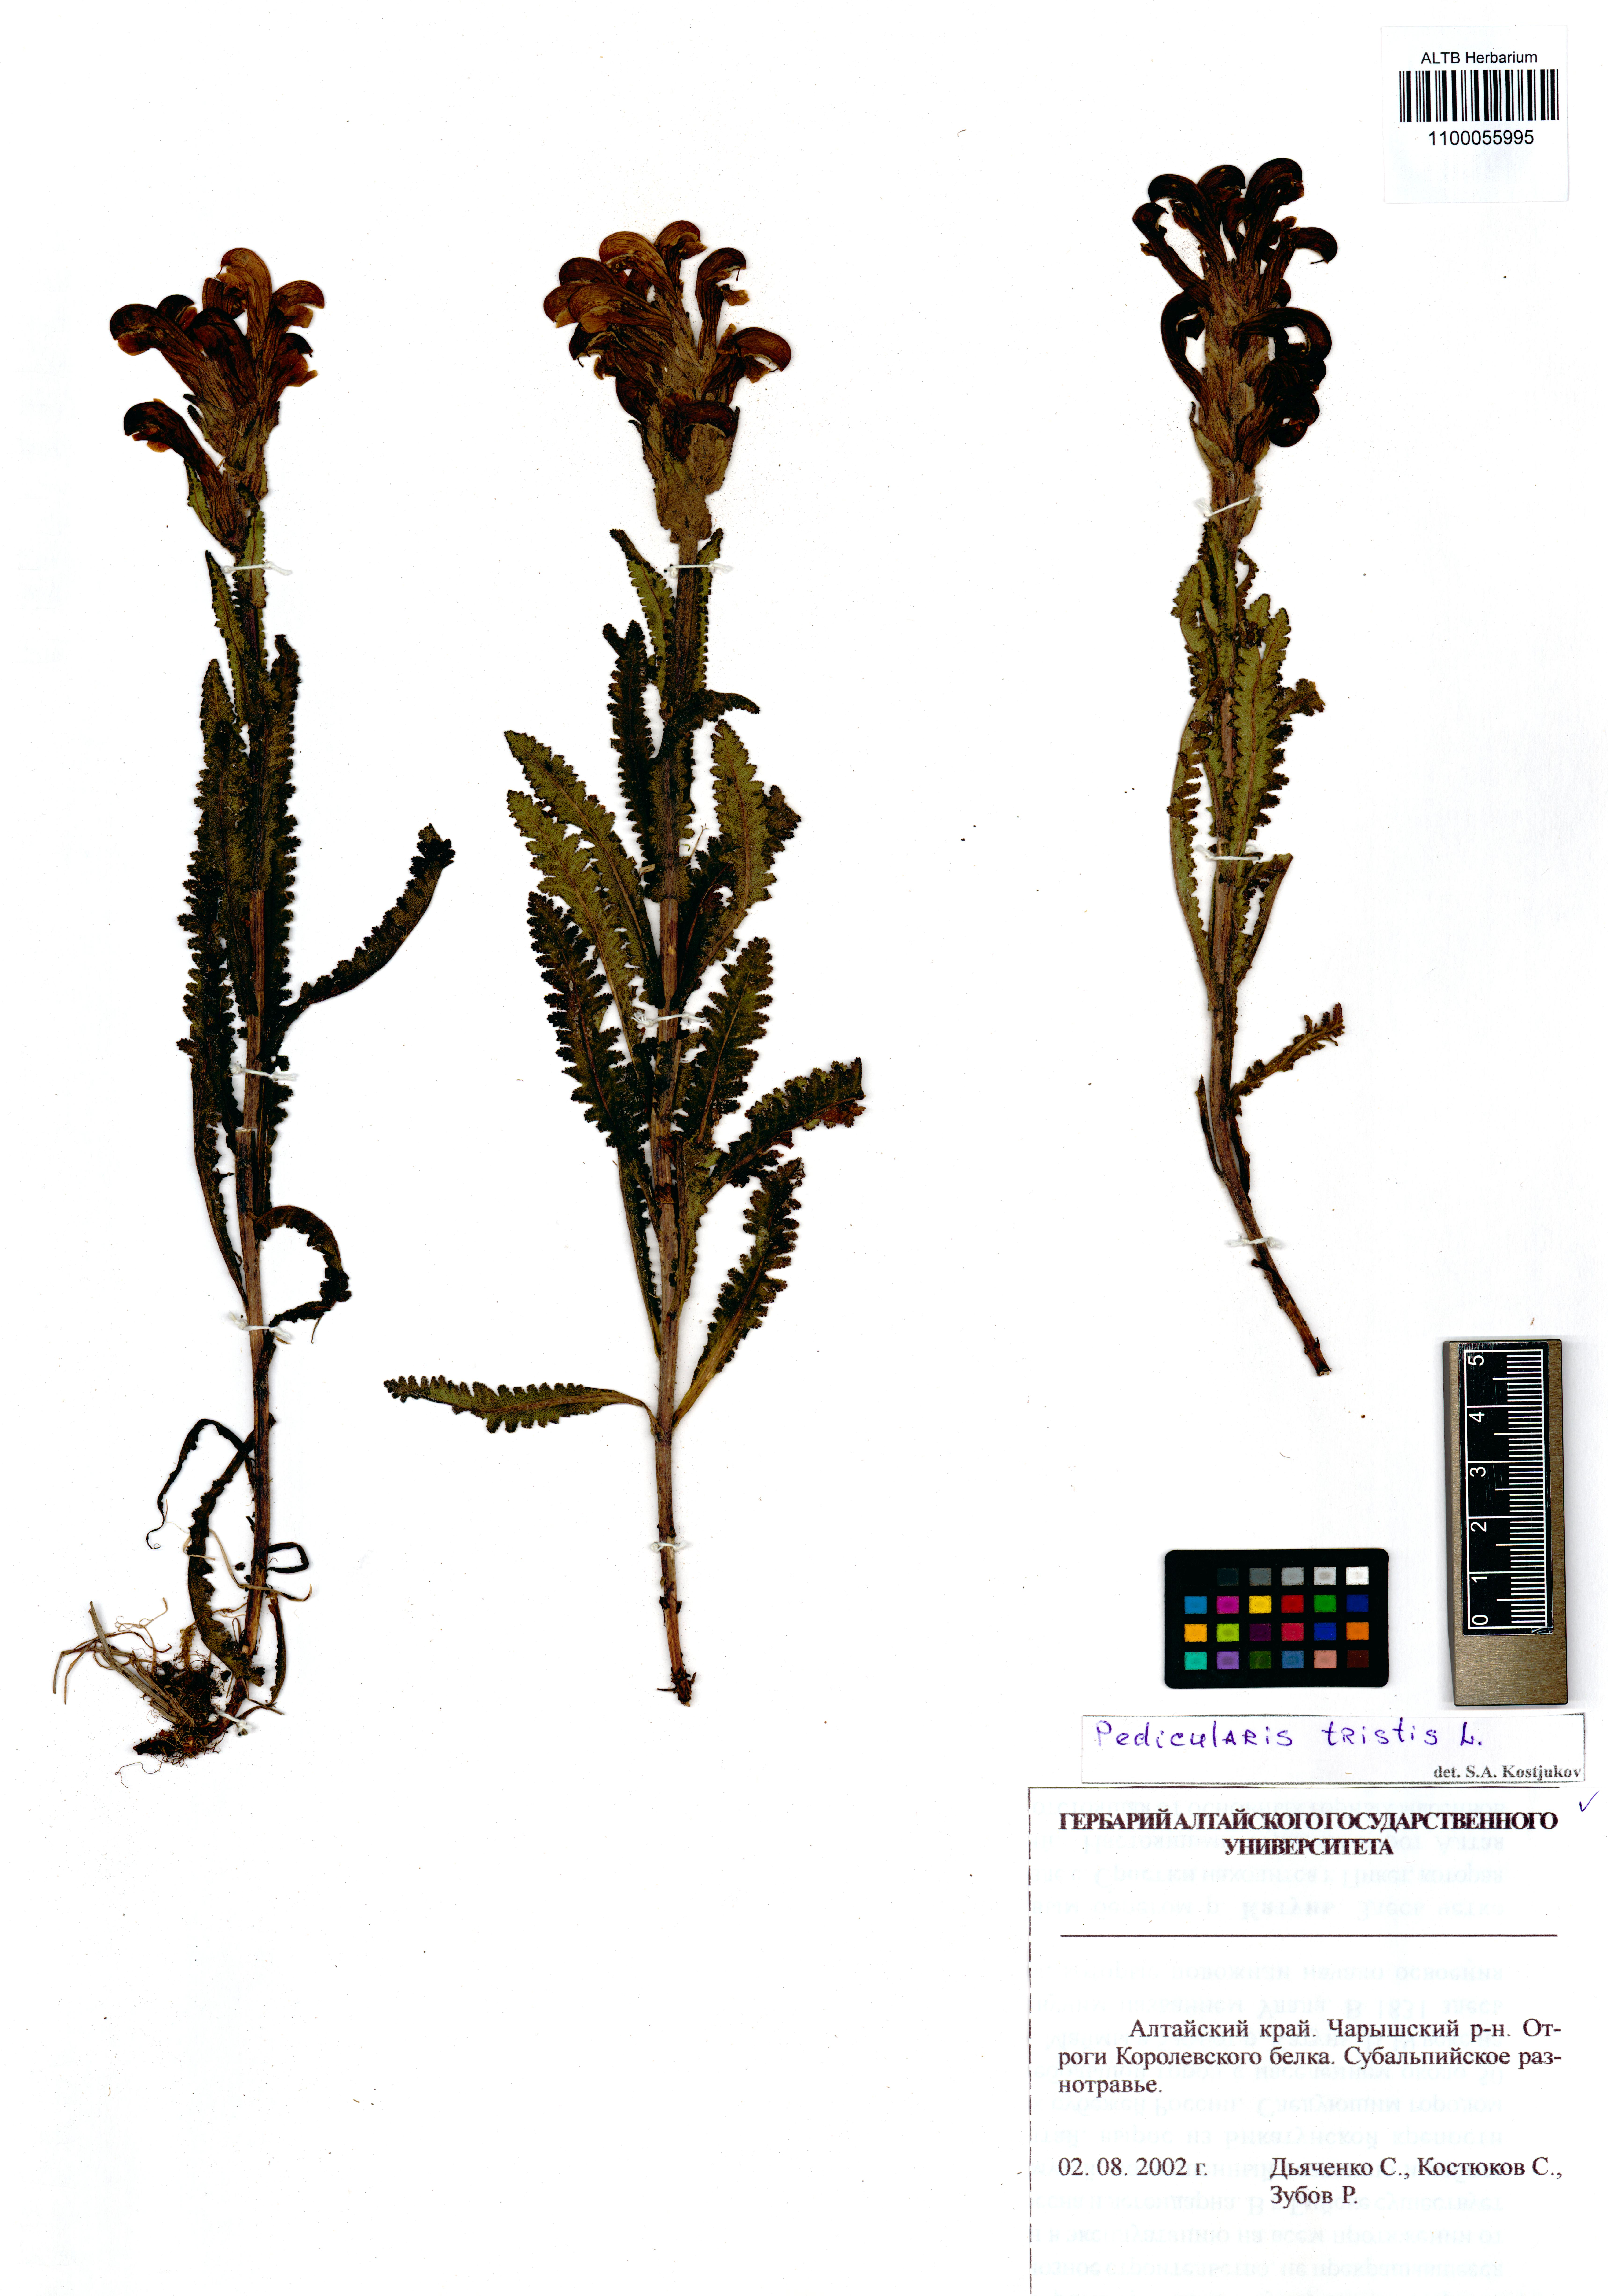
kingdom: Plantae
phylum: Tracheophyta
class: Magnoliopsida
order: Lamiales
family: Orobanchaceae
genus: Pedicularis
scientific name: Pedicularis tristis
